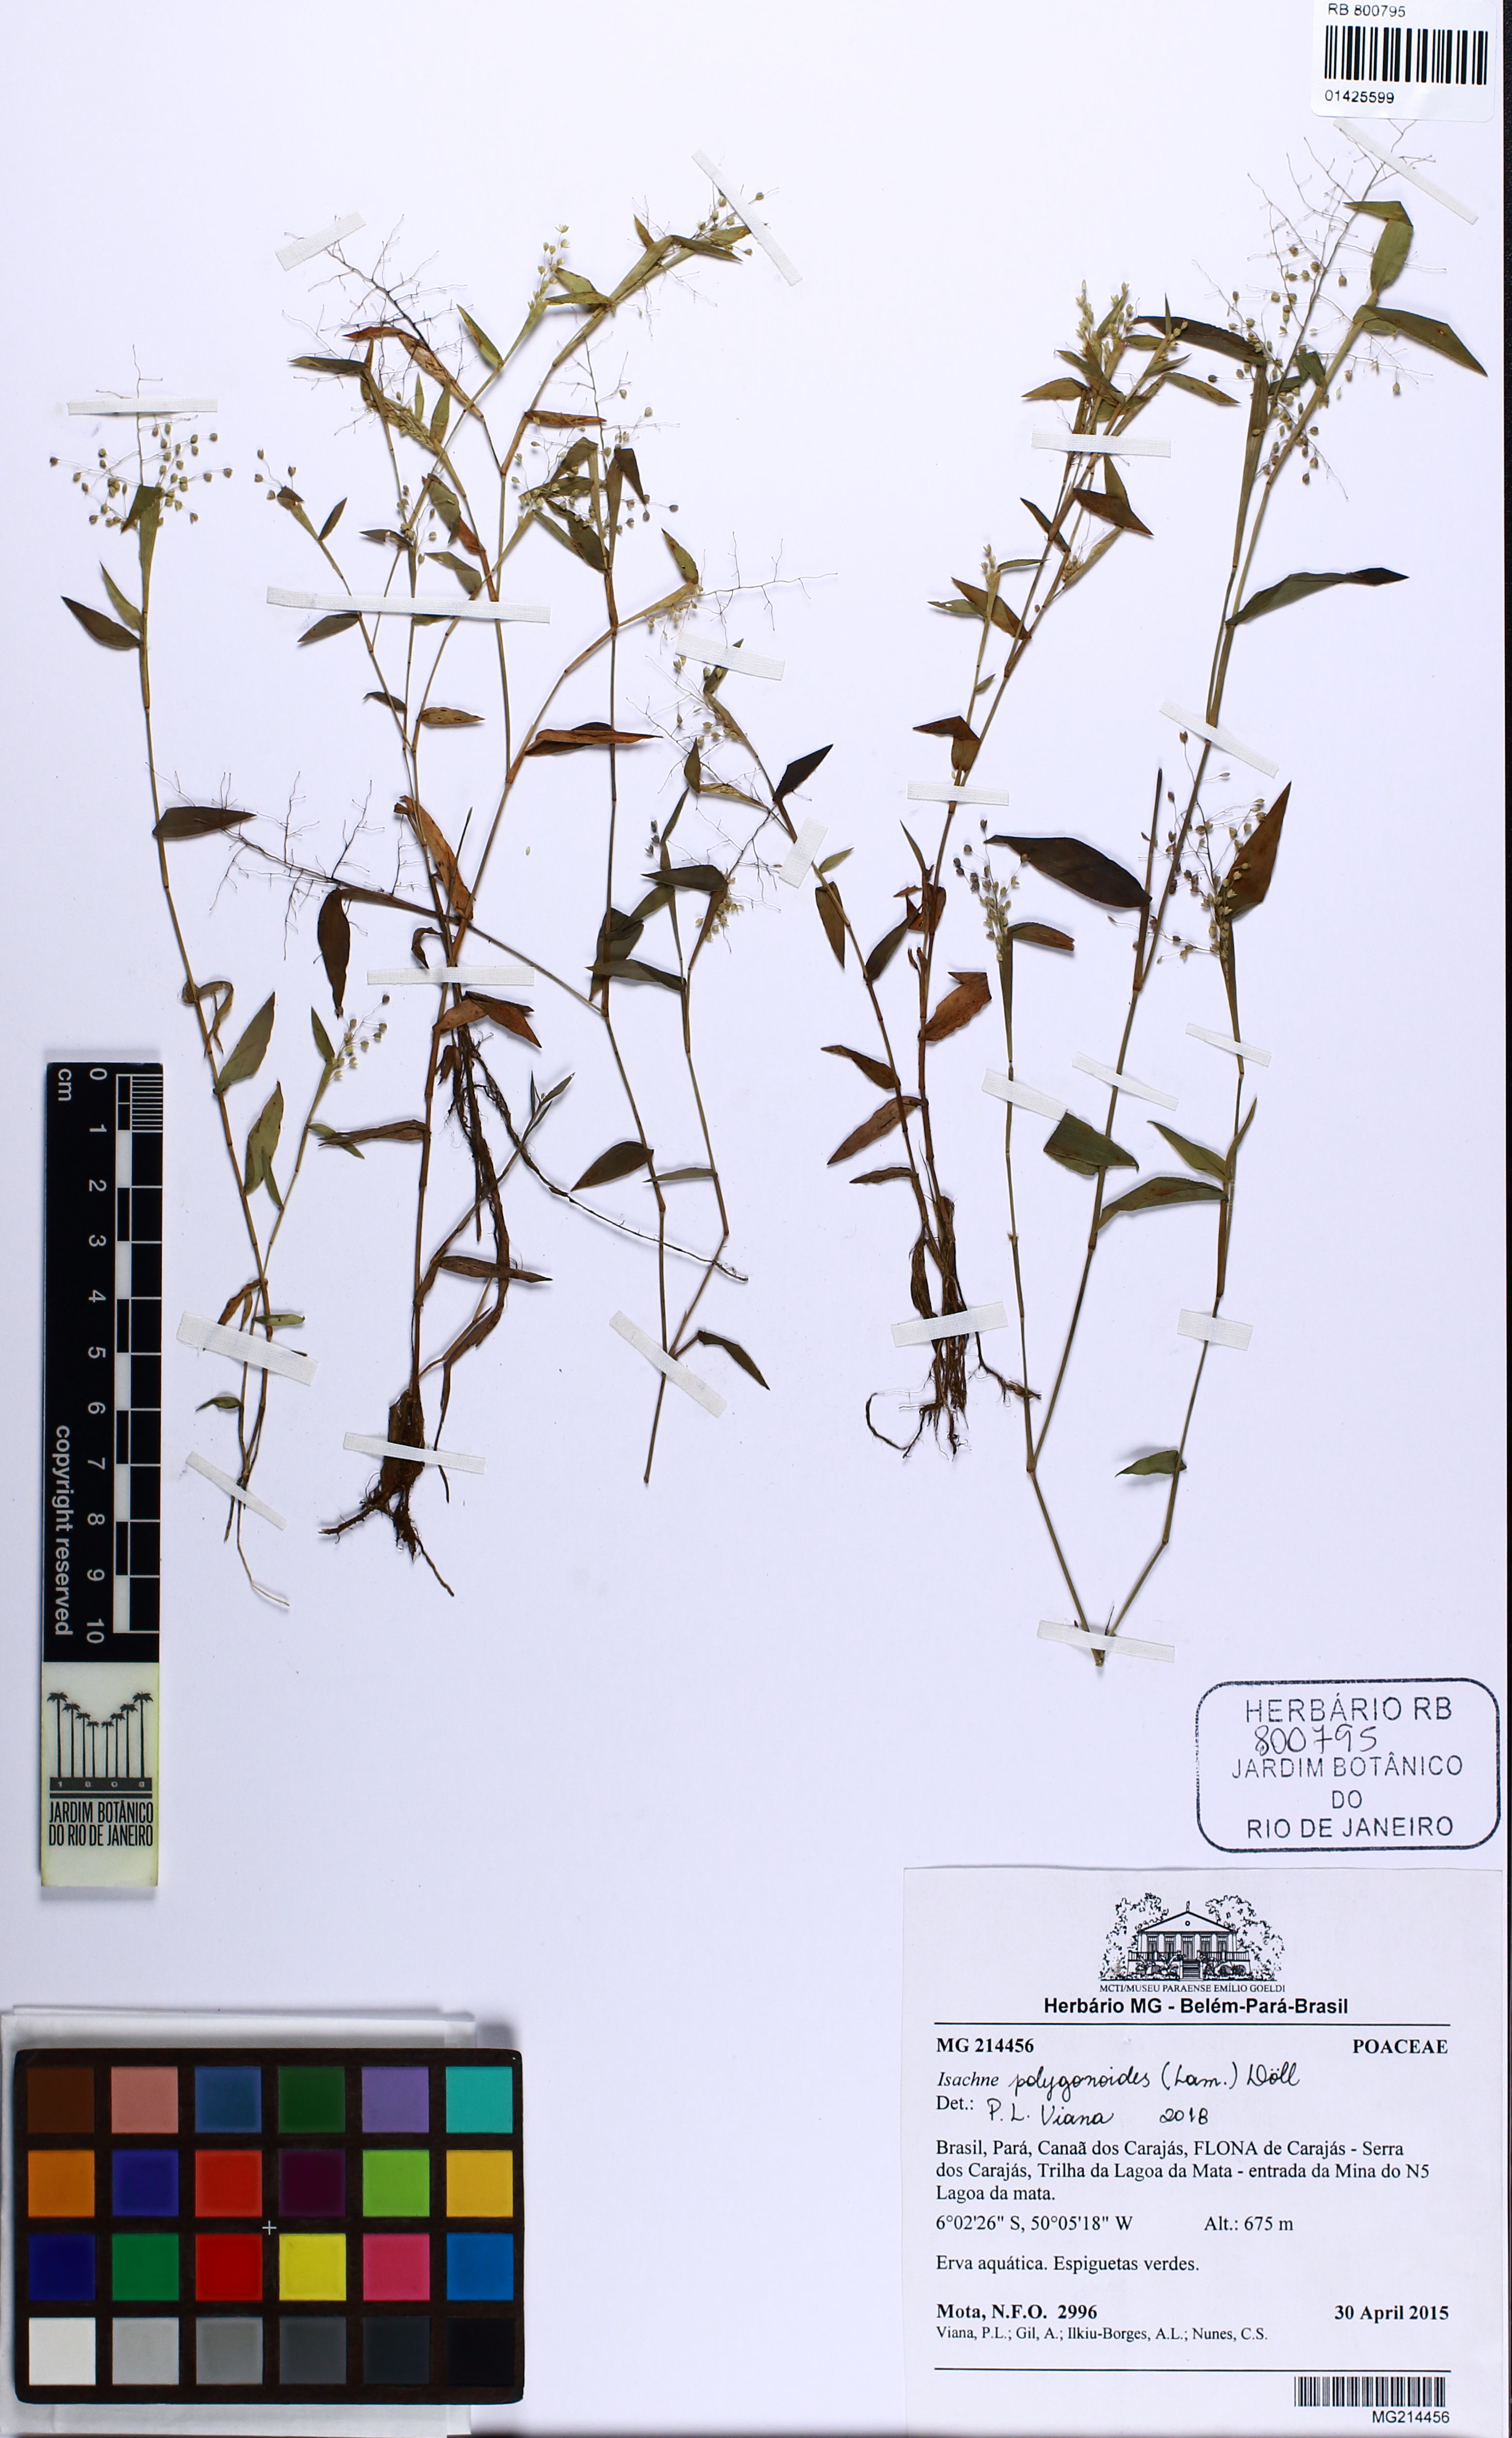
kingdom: Plantae
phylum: Tracheophyta
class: Liliopsida
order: Poales
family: Poaceae
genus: Isachne
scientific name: Isachne polygonoides
